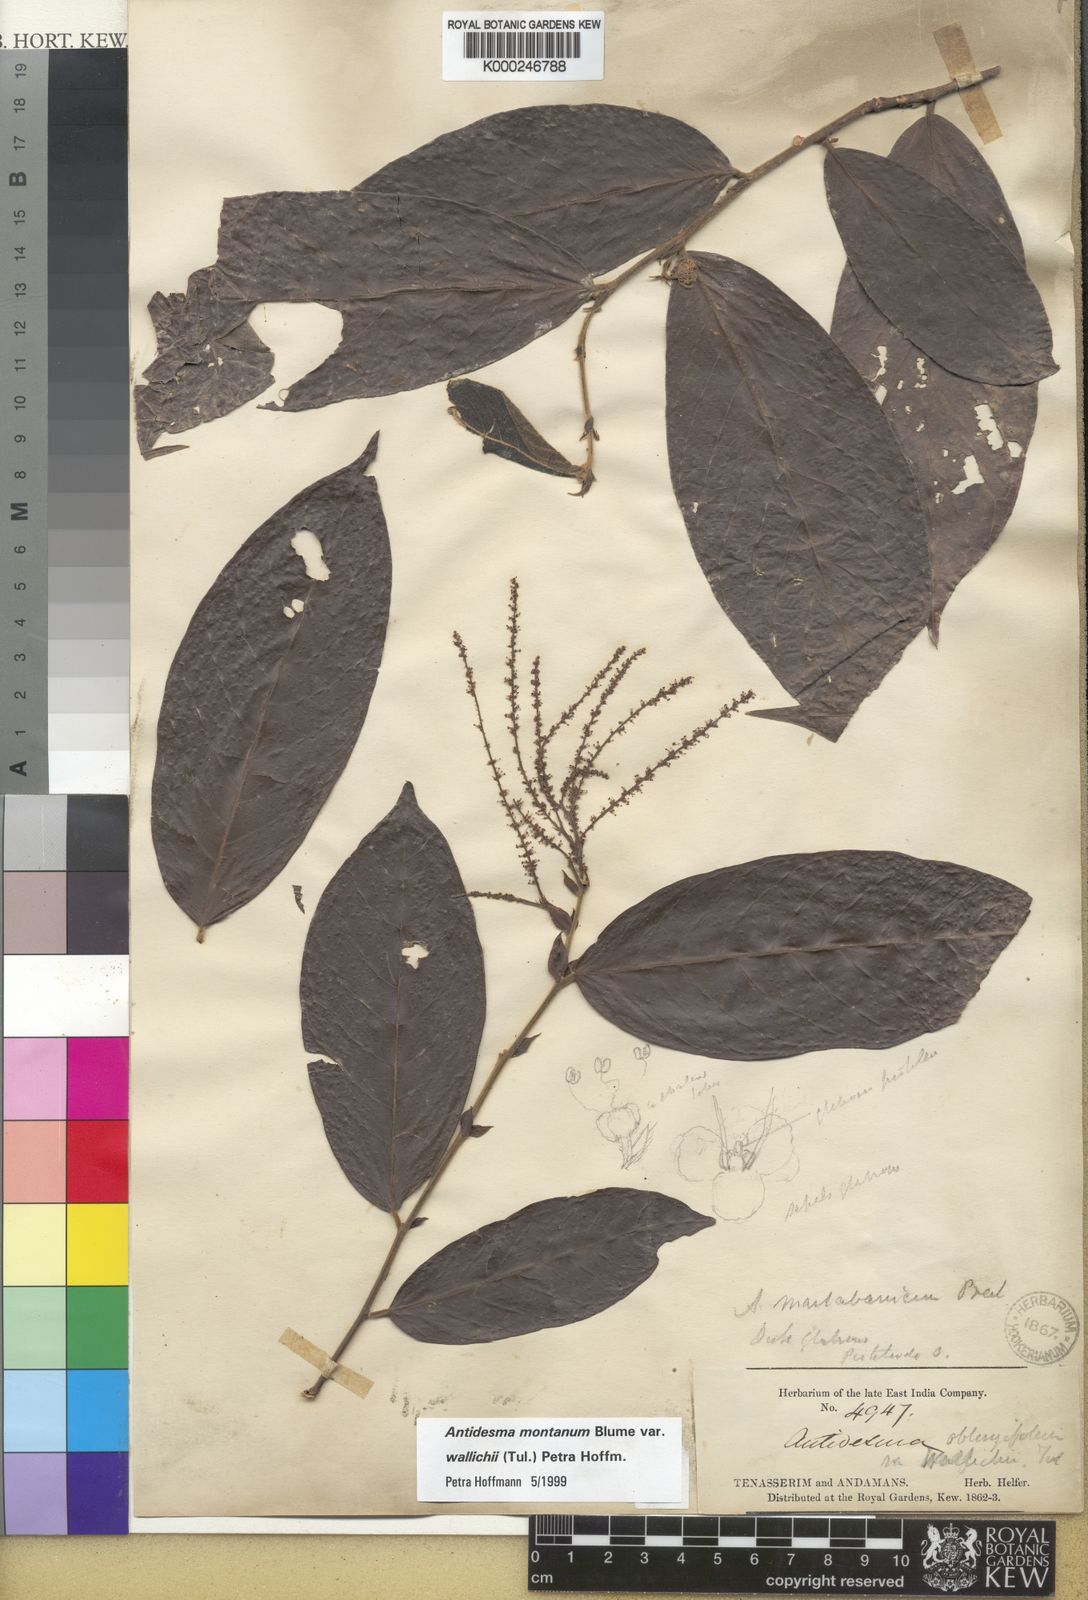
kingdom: Plantae
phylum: Tracheophyta
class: Magnoliopsida
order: Malpighiales
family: Phyllanthaceae
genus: Antidesma
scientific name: Antidesma montanum
